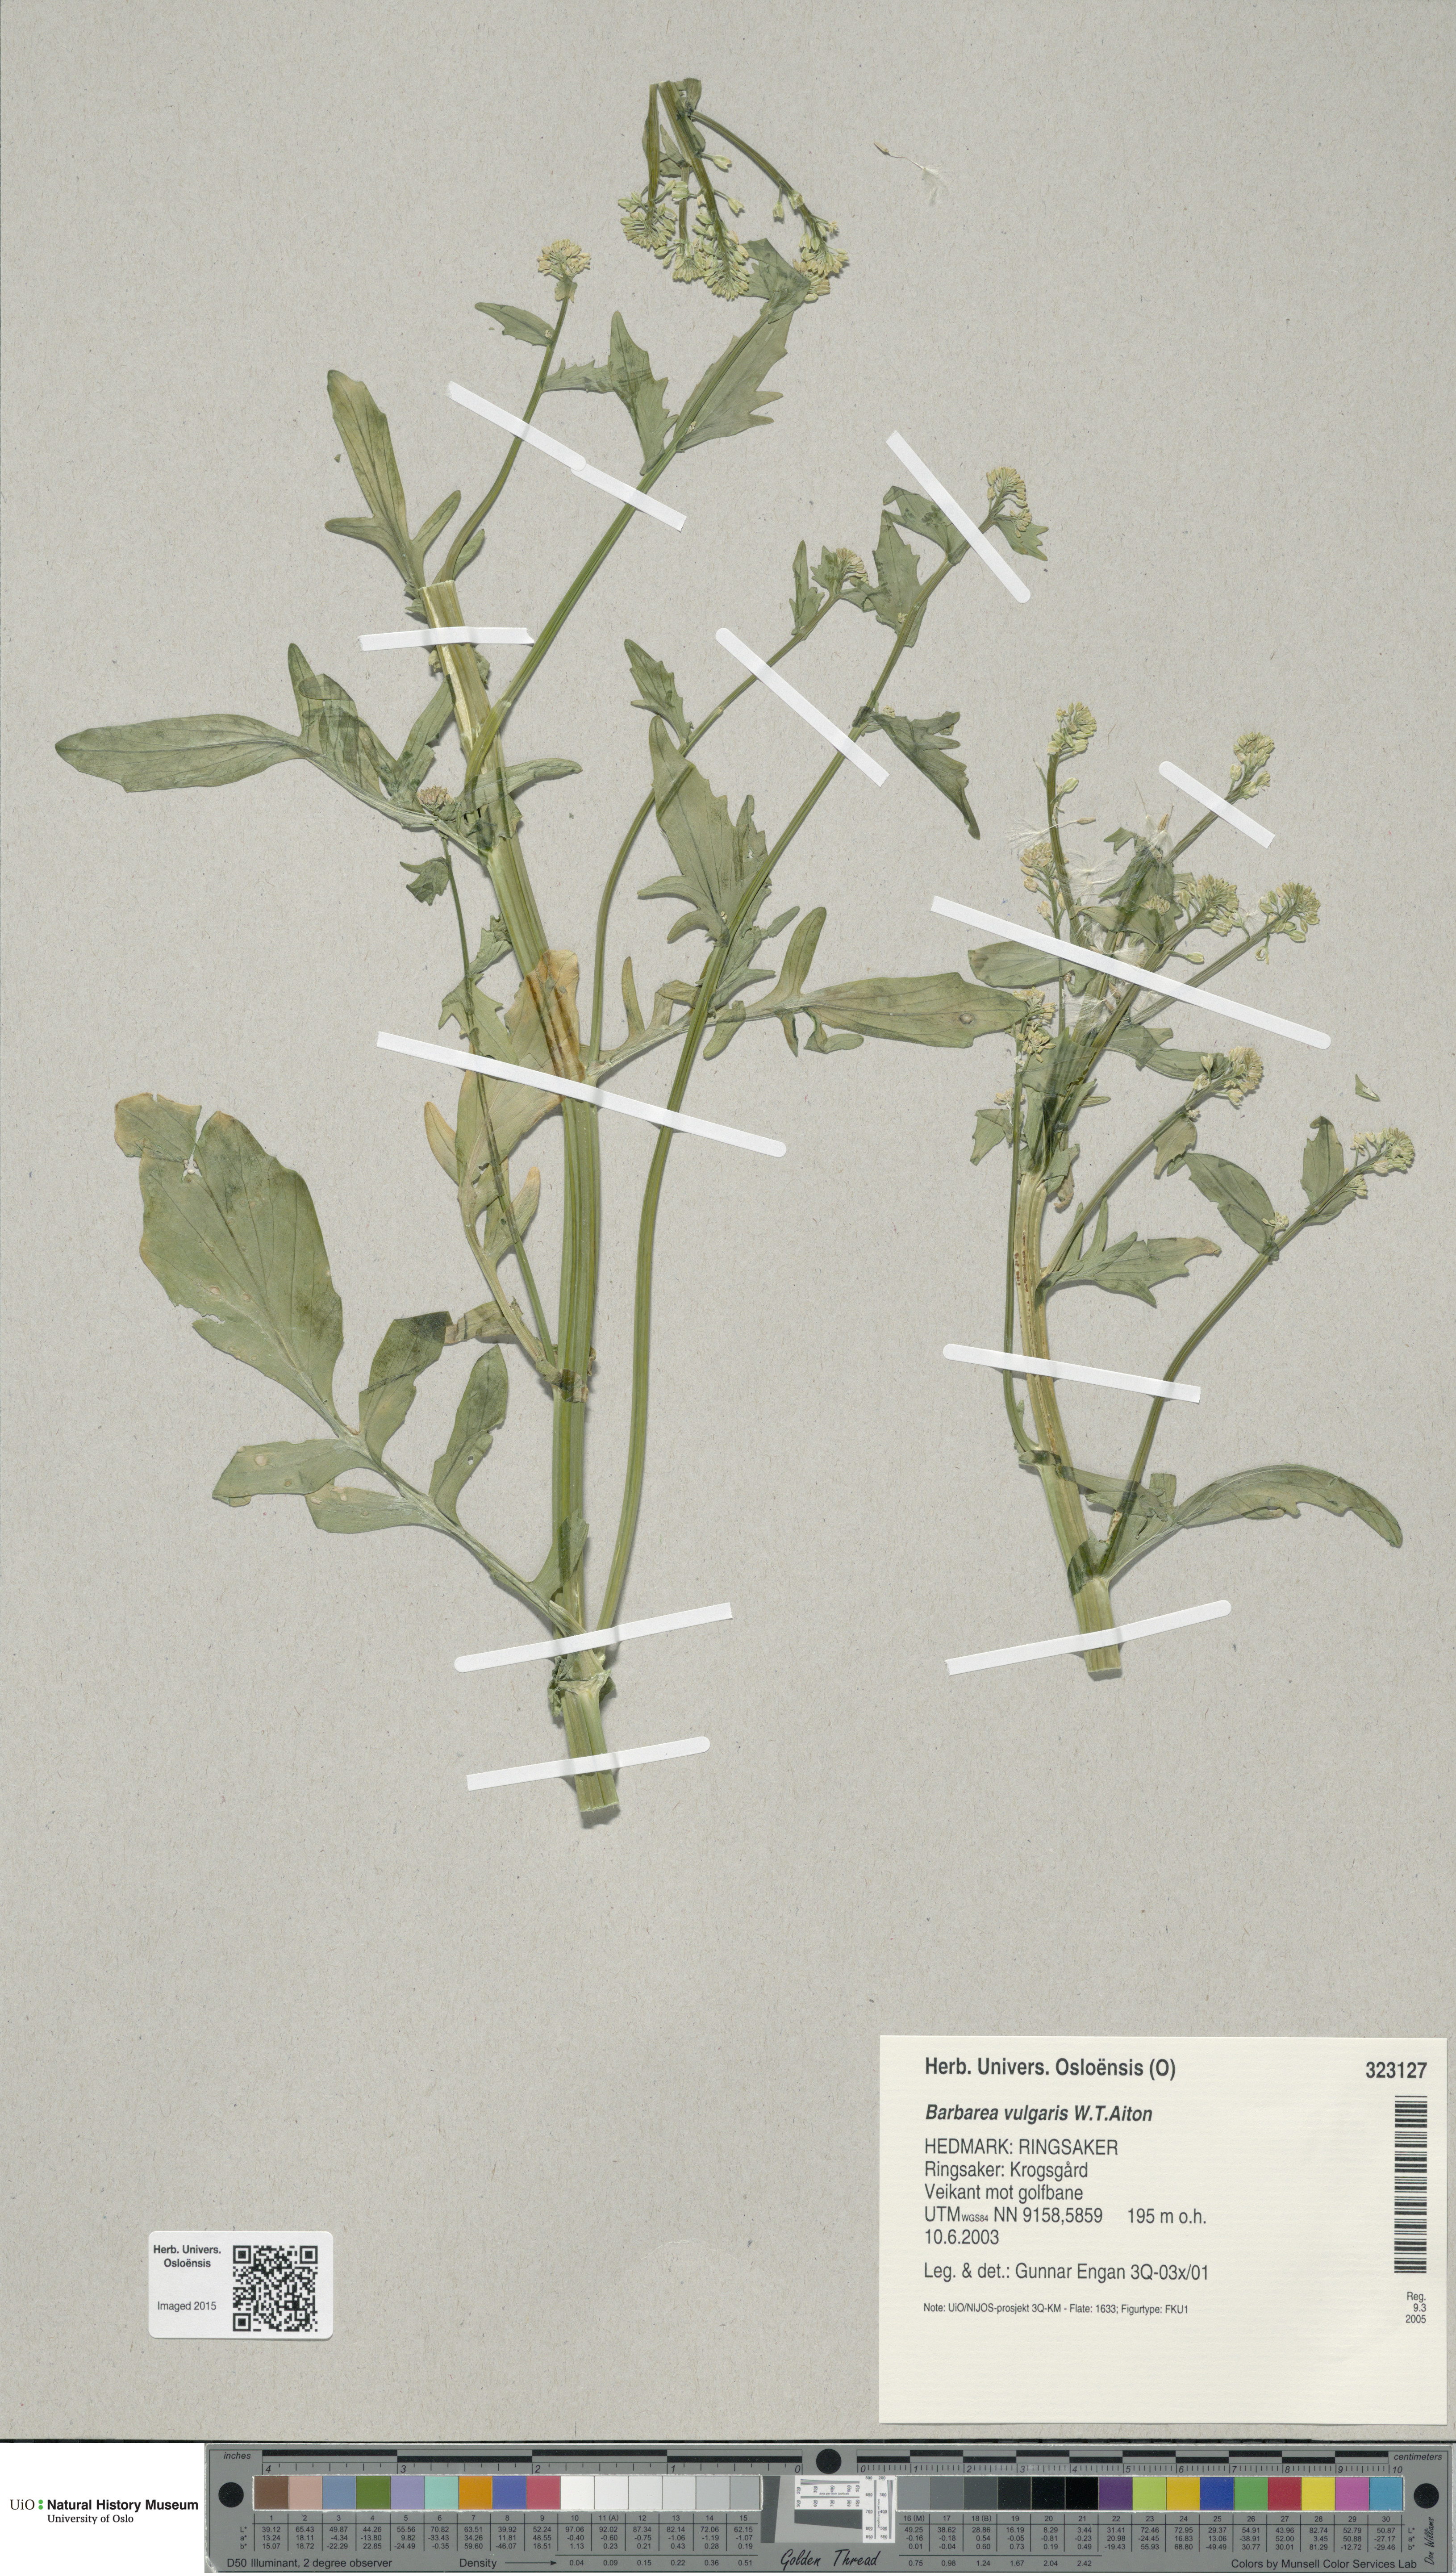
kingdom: Plantae
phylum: Tracheophyta
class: Magnoliopsida
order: Brassicales
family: Brassicaceae
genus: Barbarea
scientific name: Barbarea vulgaris
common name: Cressy-greens
